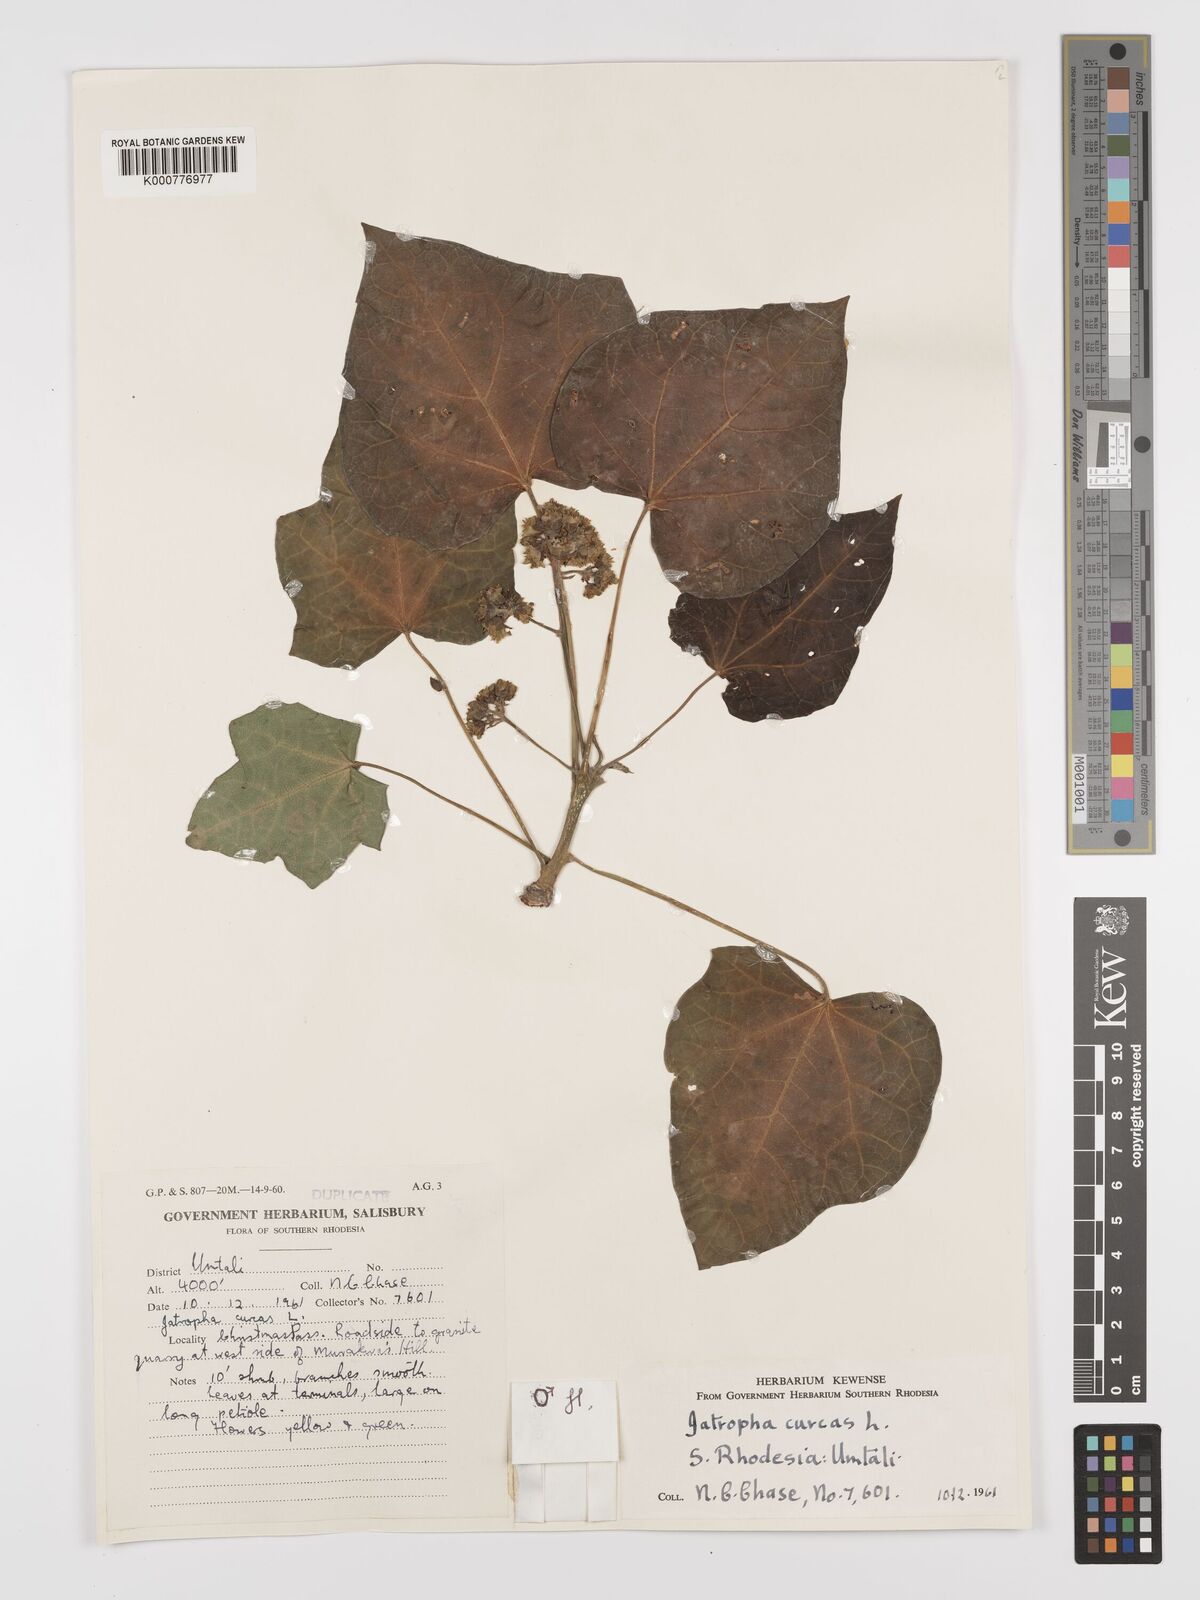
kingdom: Plantae
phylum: Tracheophyta
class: Magnoliopsida
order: Malpighiales
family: Euphorbiaceae
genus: Jatropha
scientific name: Jatropha curcas
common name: Barbados nut
